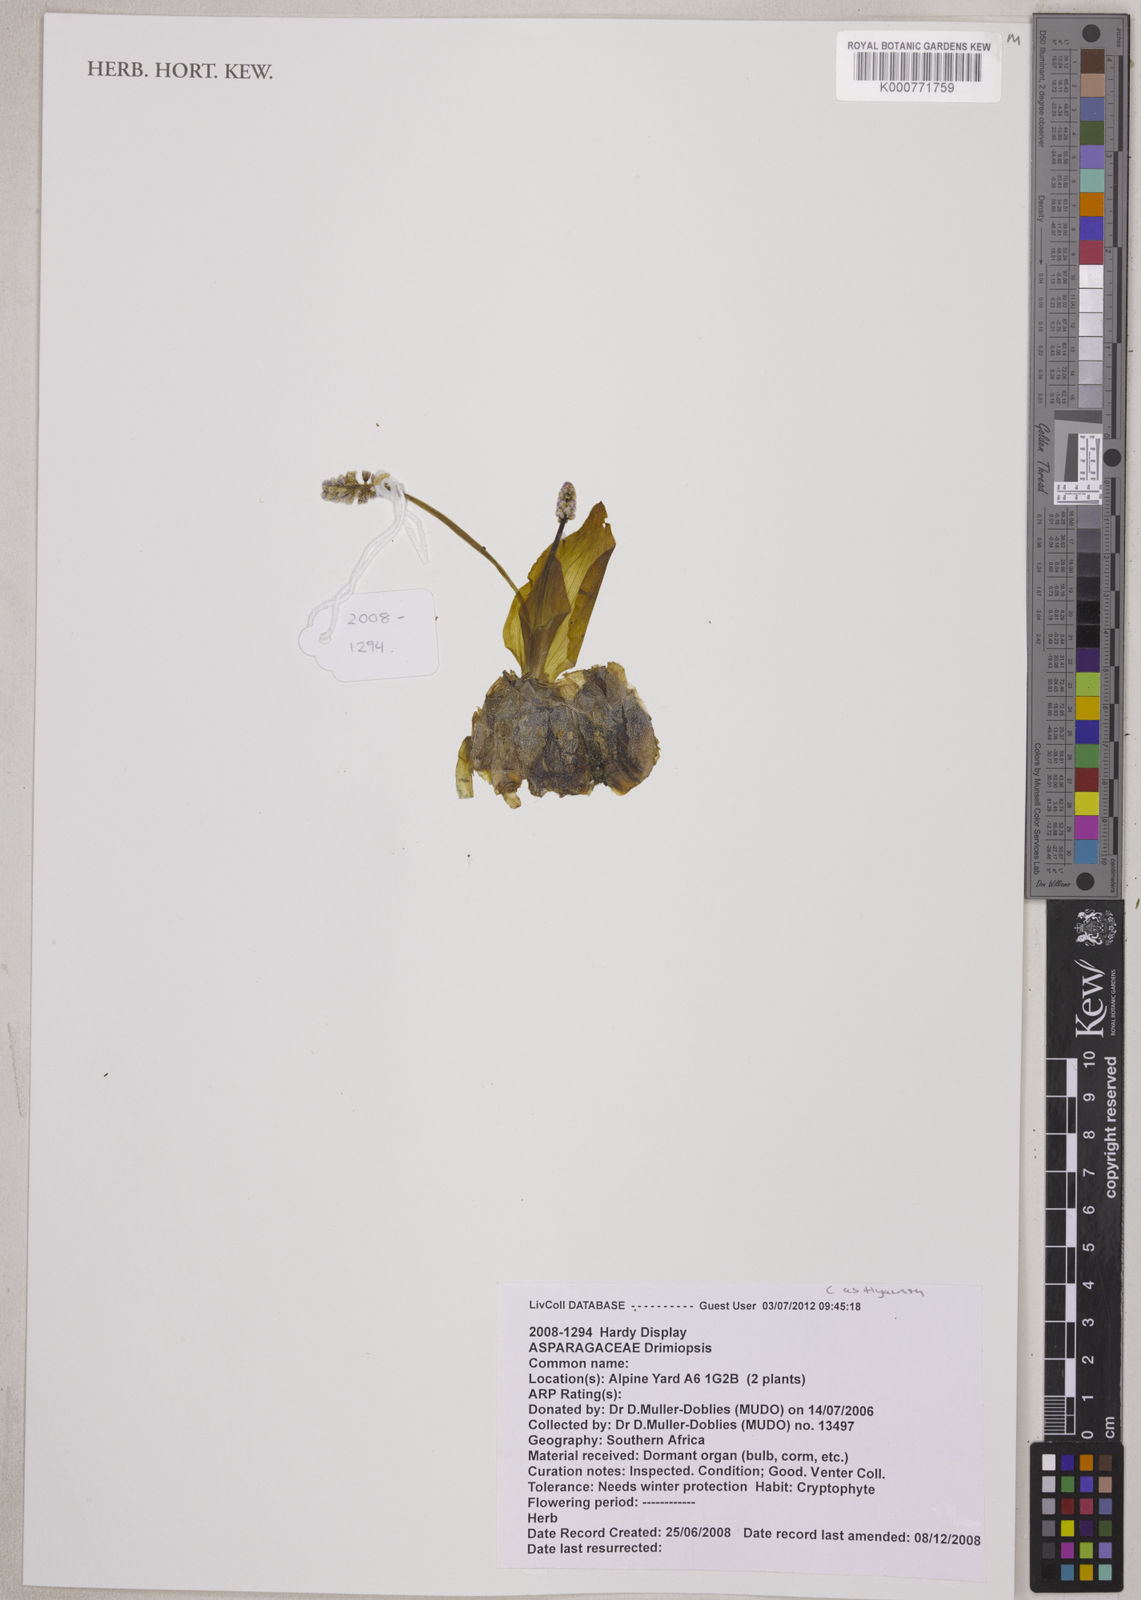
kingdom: Plantae
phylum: Tracheophyta
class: Liliopsida
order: Asparagales
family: Asparagaceae
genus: Drimiopsis
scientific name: Drimiopsis burkei
